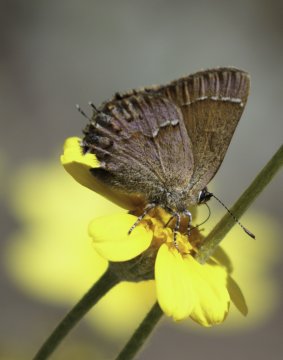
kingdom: Animalia
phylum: Arthropoda
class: Insecta
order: Lepidoptera
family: Lycaenidae
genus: Mitoura
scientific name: Mitoura gryneus
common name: Juniper Hairstreak
